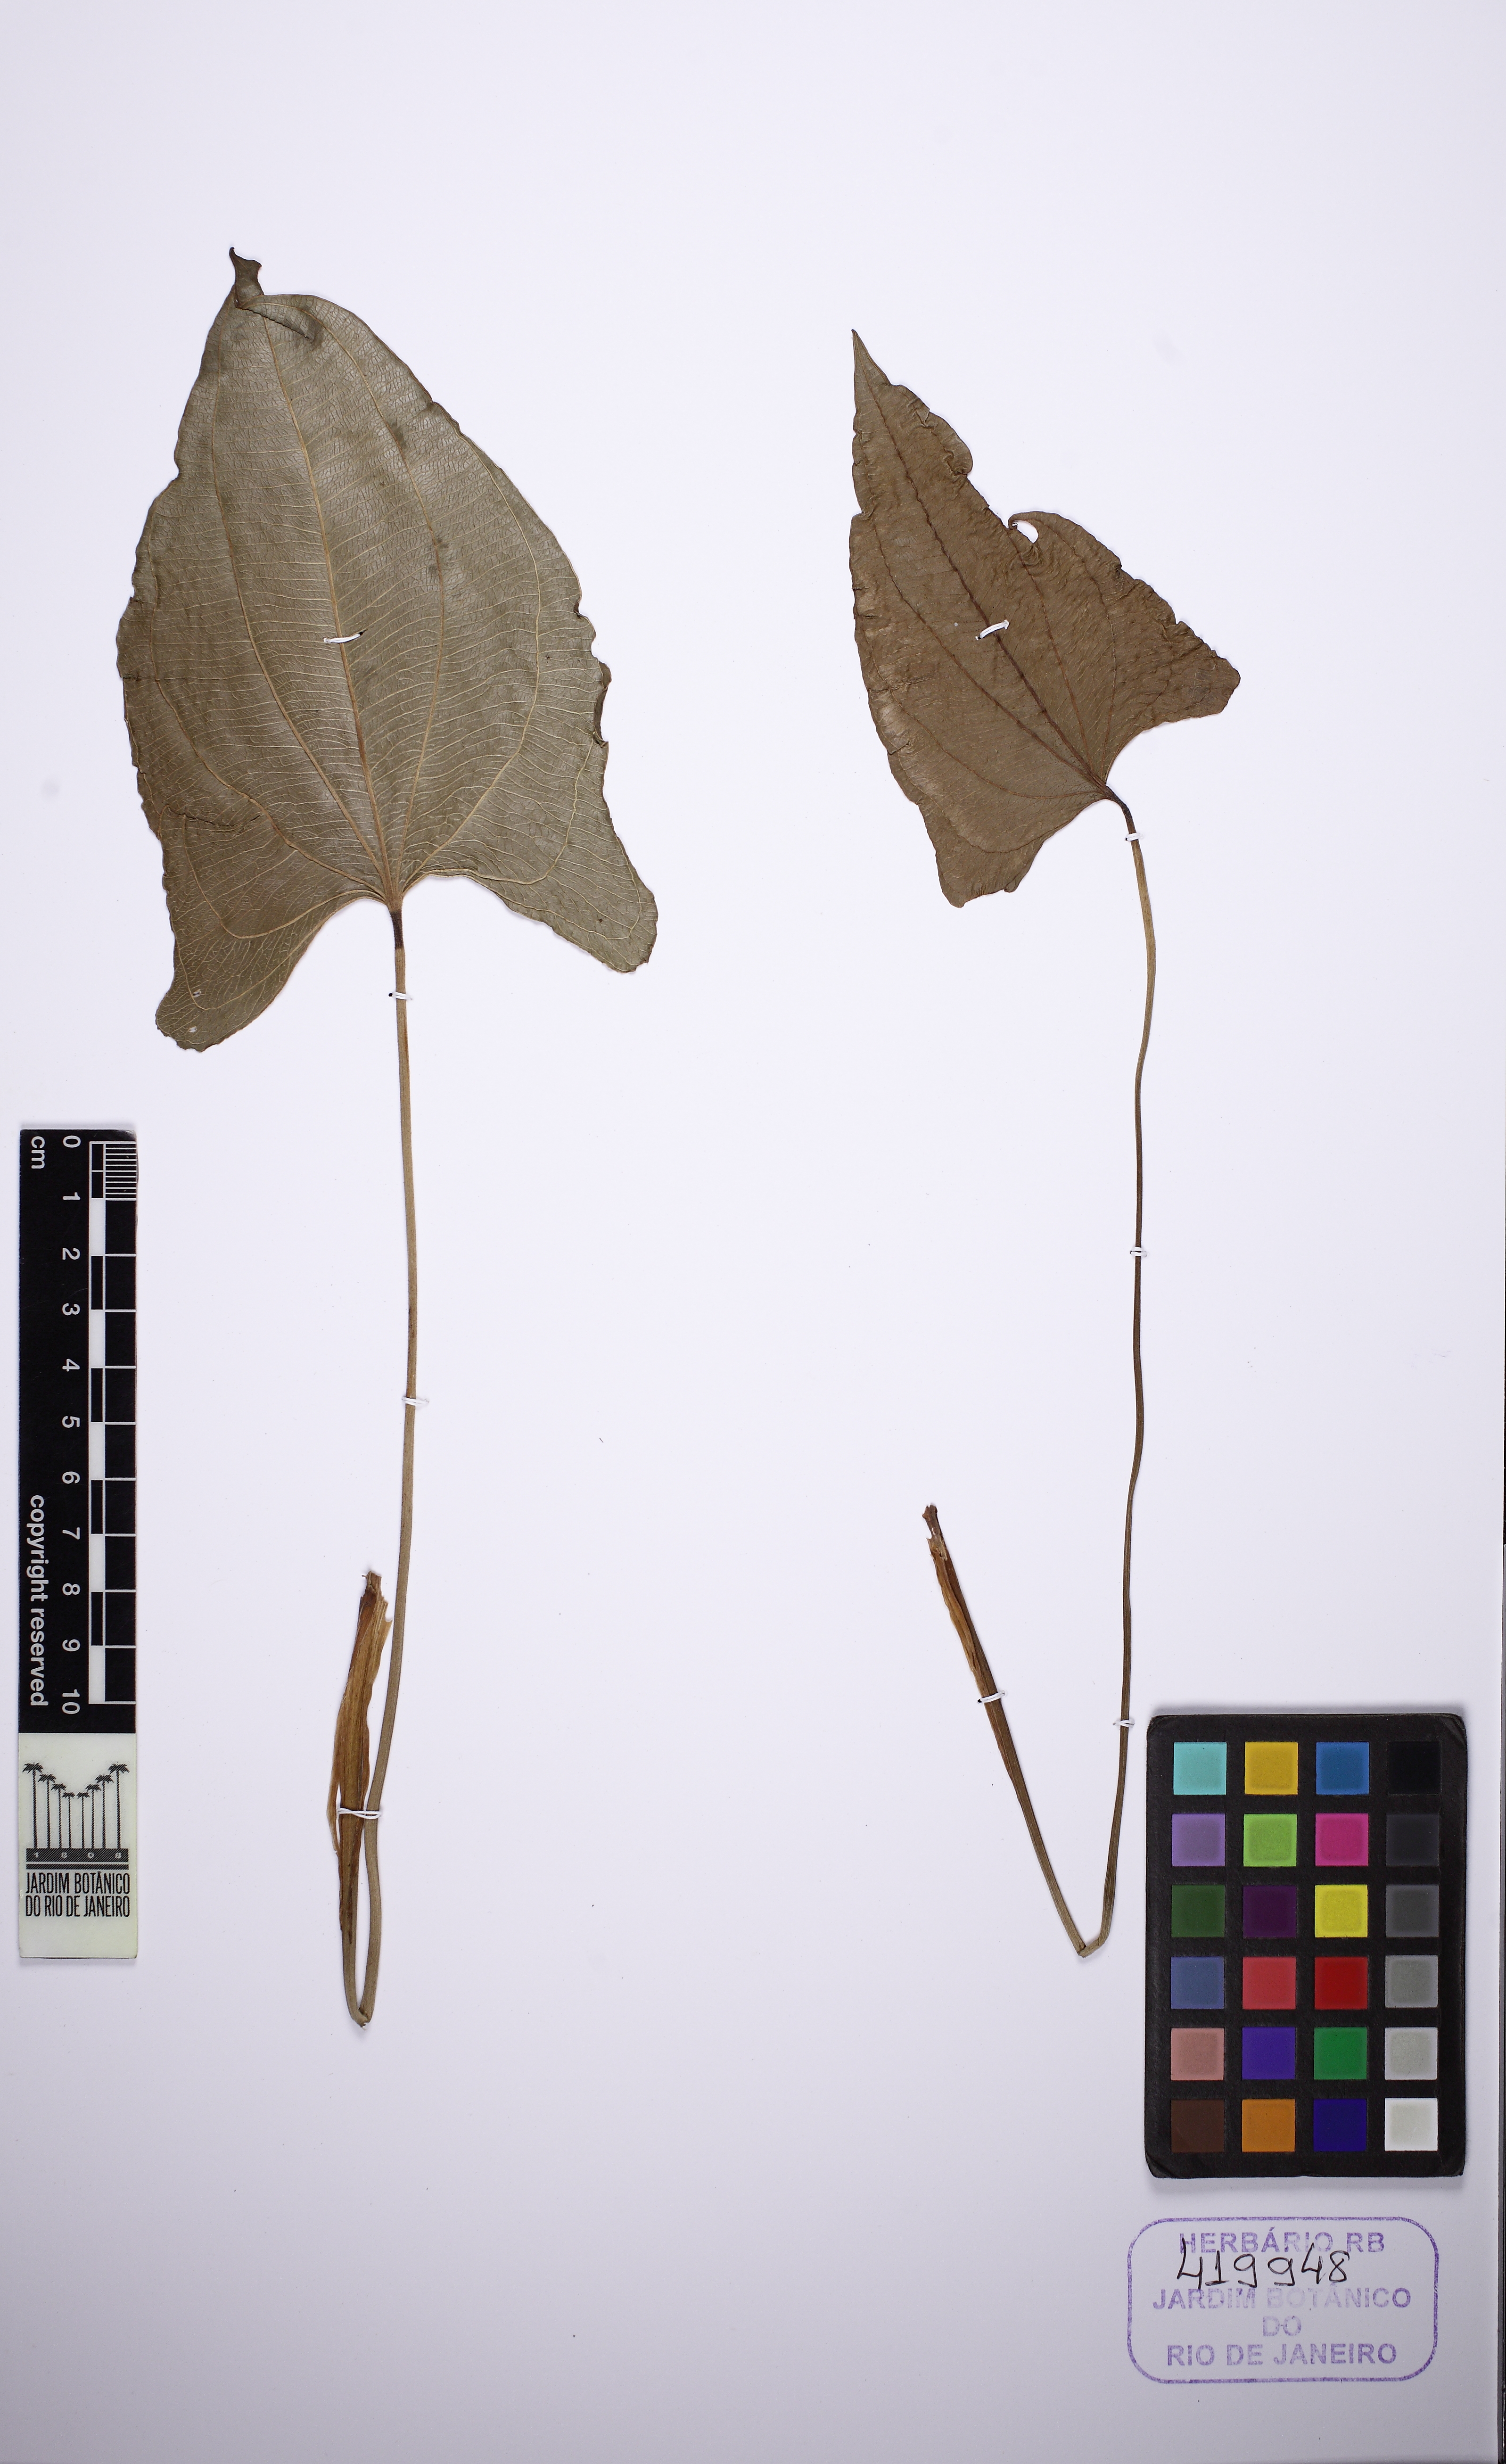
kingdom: Plantae
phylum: Tracheophyta
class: Liliopsida
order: Alismatales
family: Alismataceae
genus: Aquarius
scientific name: Aquarius macrophyllus
